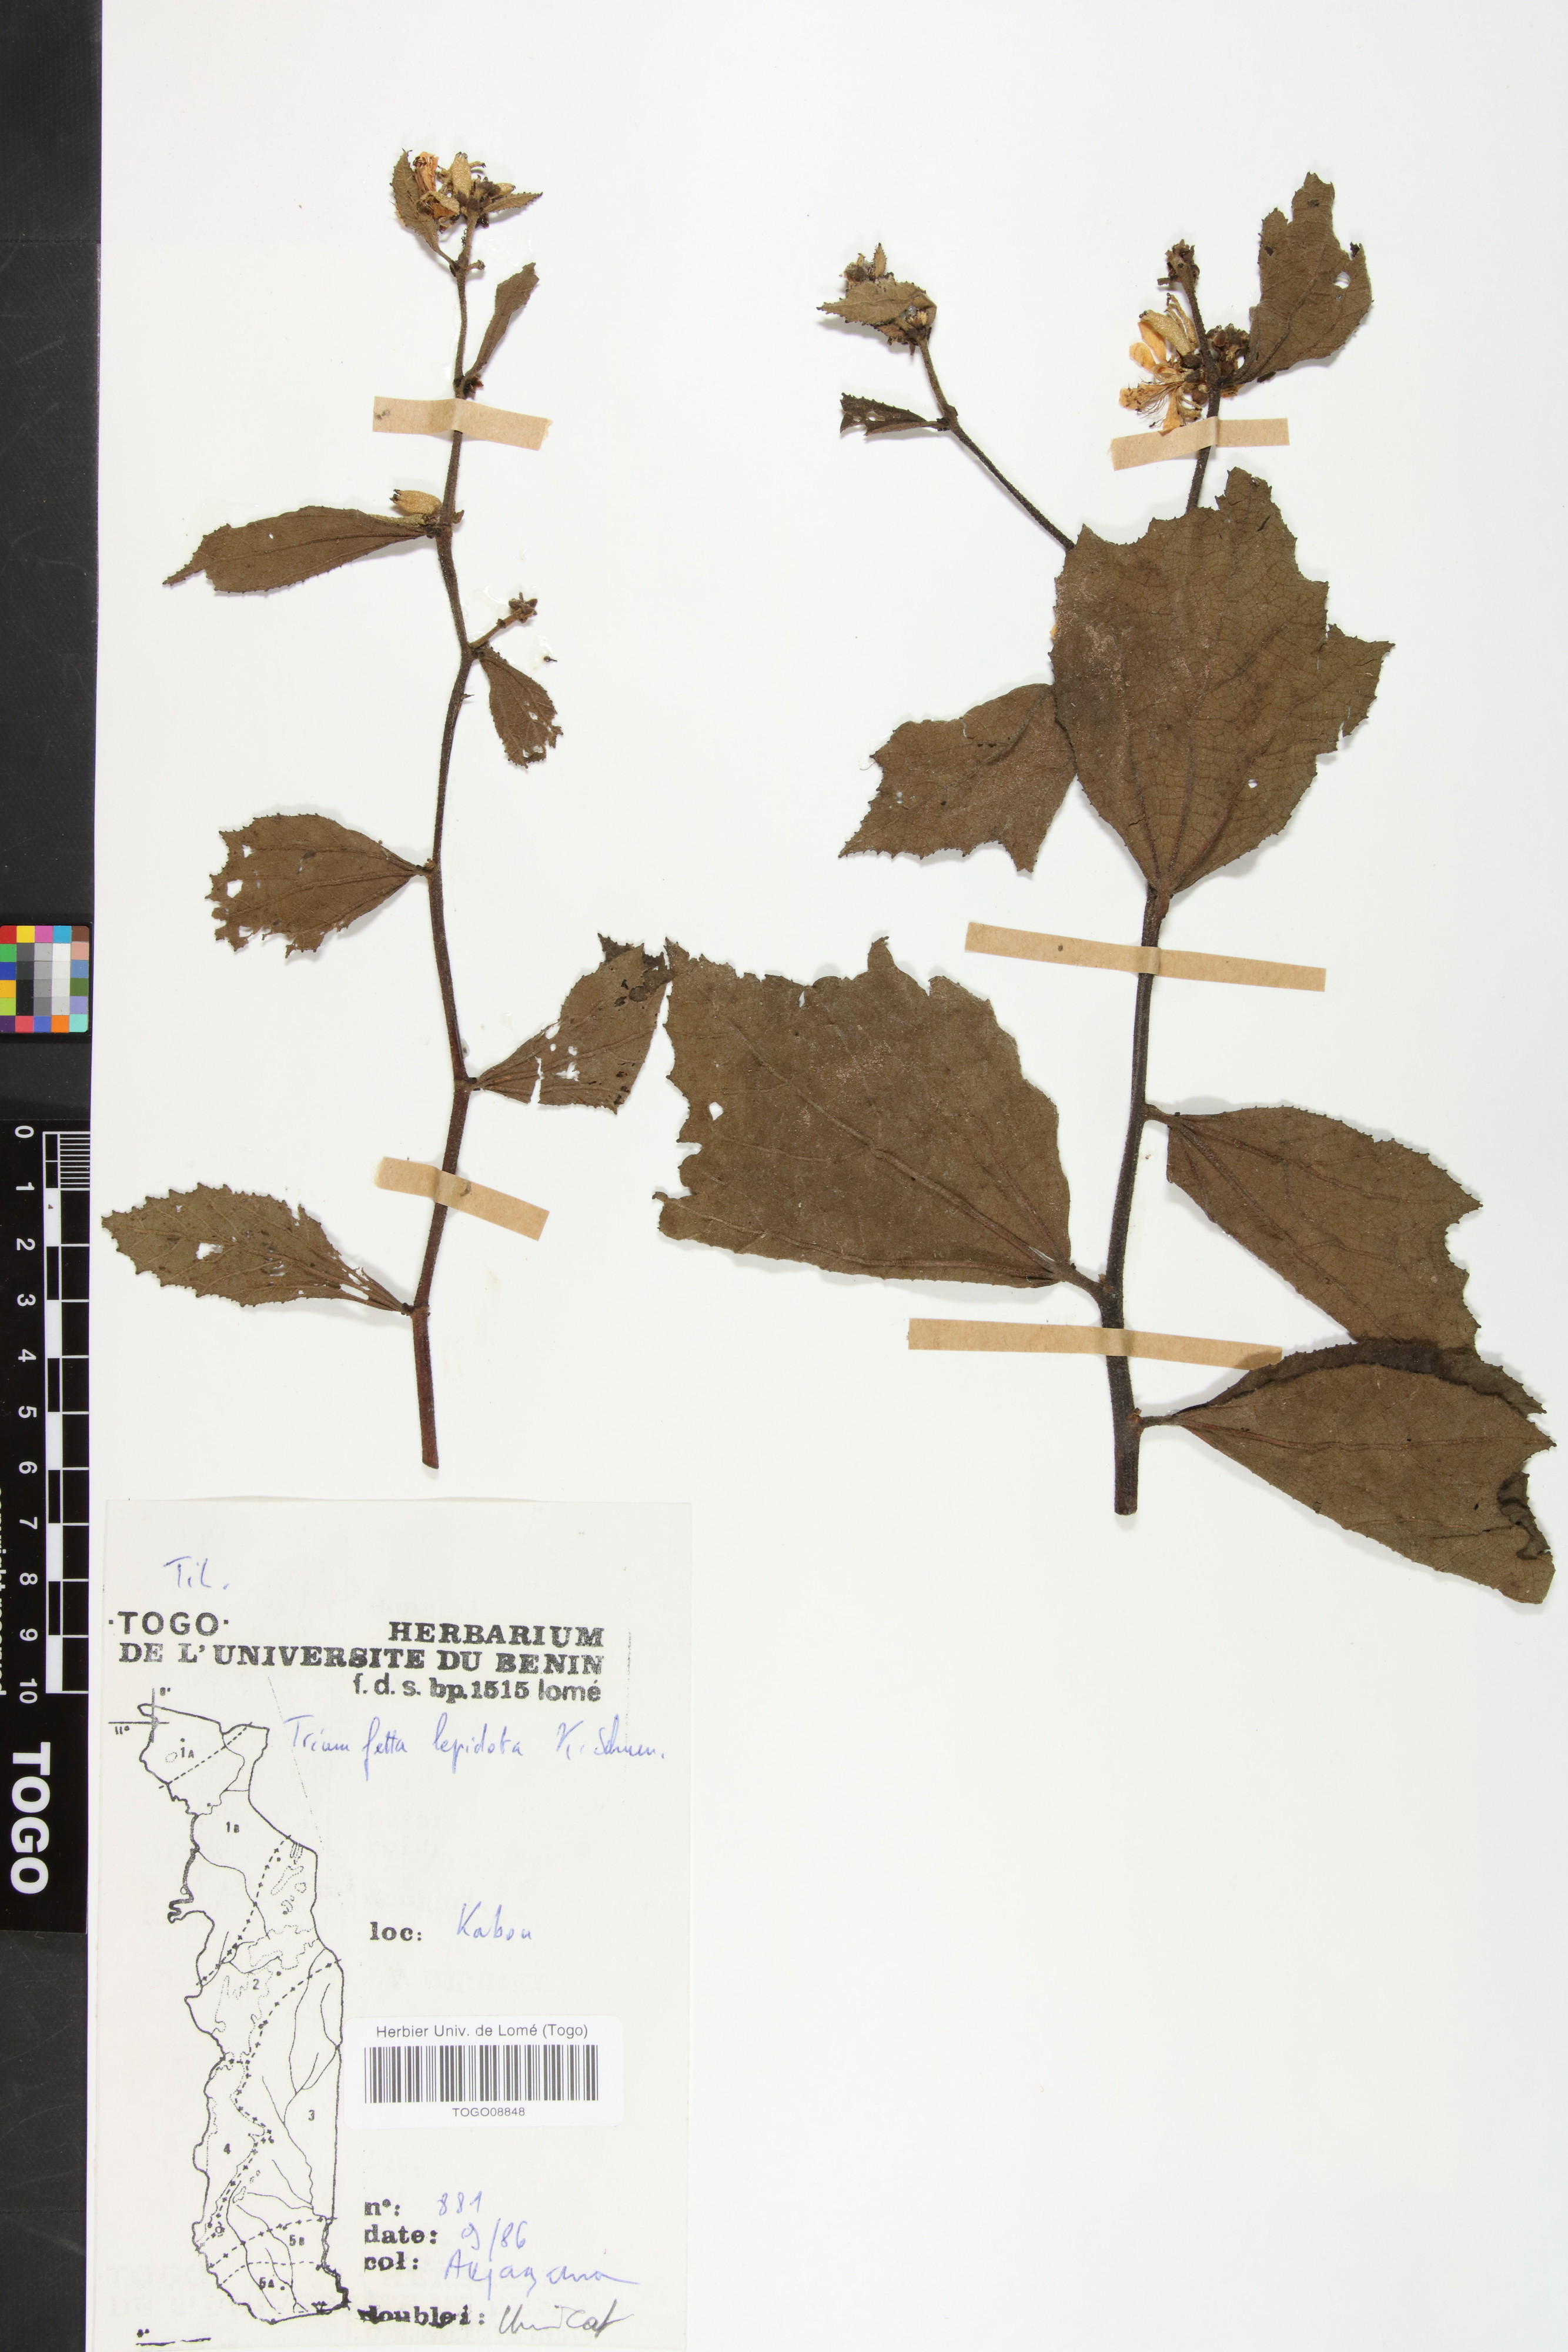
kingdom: Plantae
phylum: Tracheophyta
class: Magnoliopsida
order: Malvales
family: Malvaceae
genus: Triumfetta
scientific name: Triumfetta lepidota
